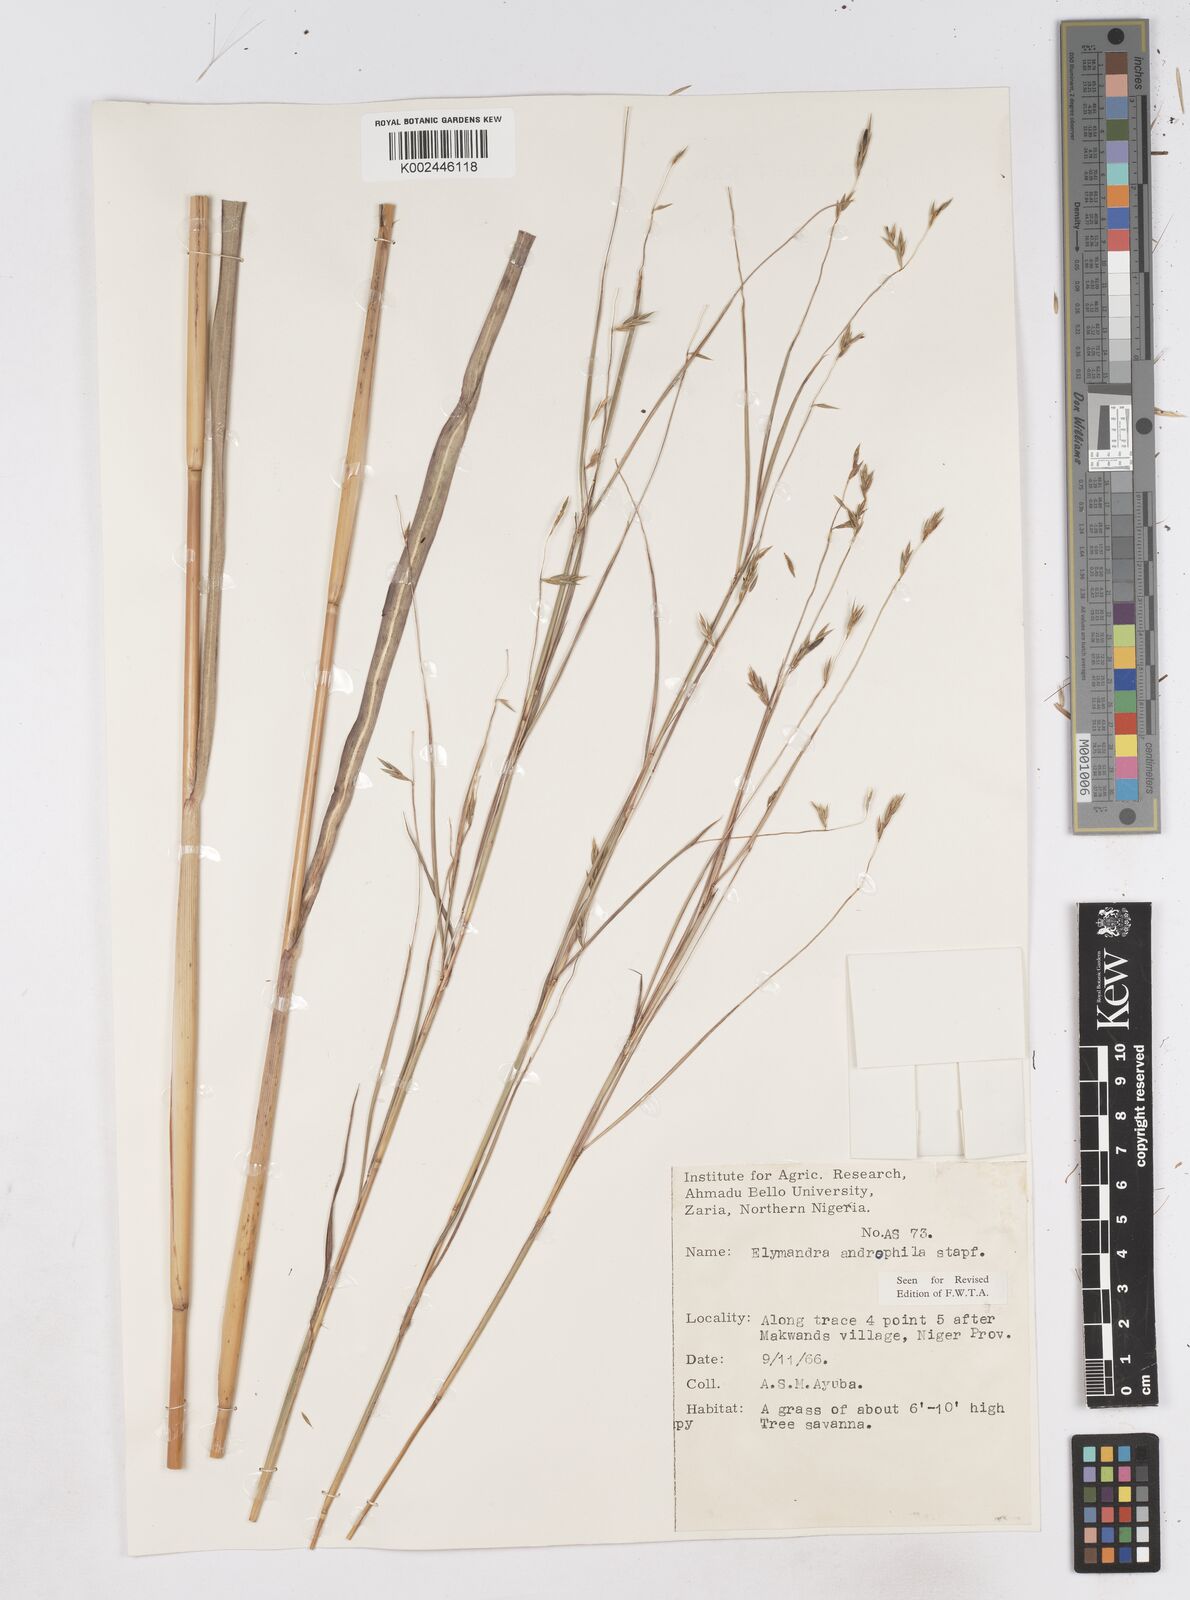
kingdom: Plantae
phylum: Tracheophyta
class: Liliopsida
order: Poales
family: Poaceae
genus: Elymandra
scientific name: Elymandra androphila
